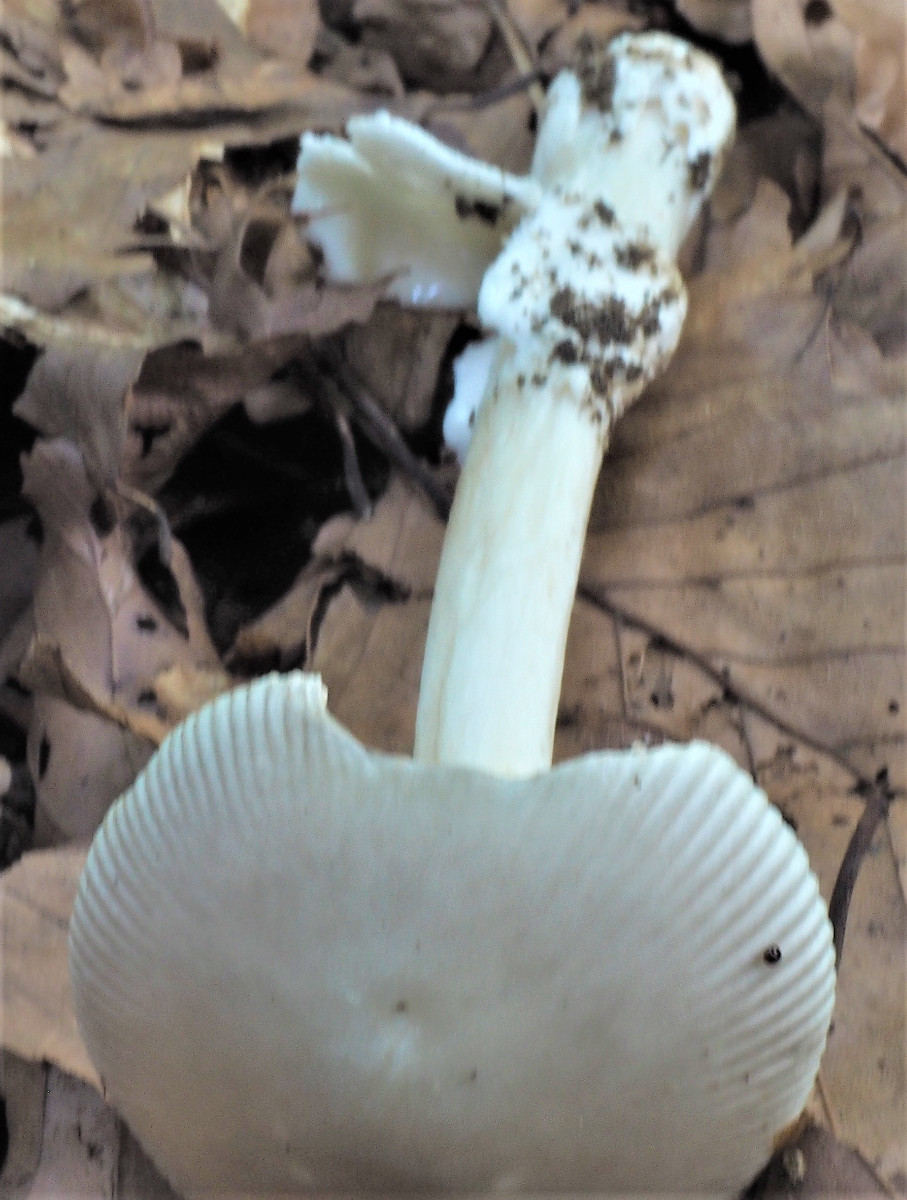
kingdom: Fungi
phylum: Basidiomycota
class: Agaricomycetes
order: Agaricales
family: Amanitaceae
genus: Amanita
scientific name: Amanita vaginata
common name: grå kam-fluesvamp
